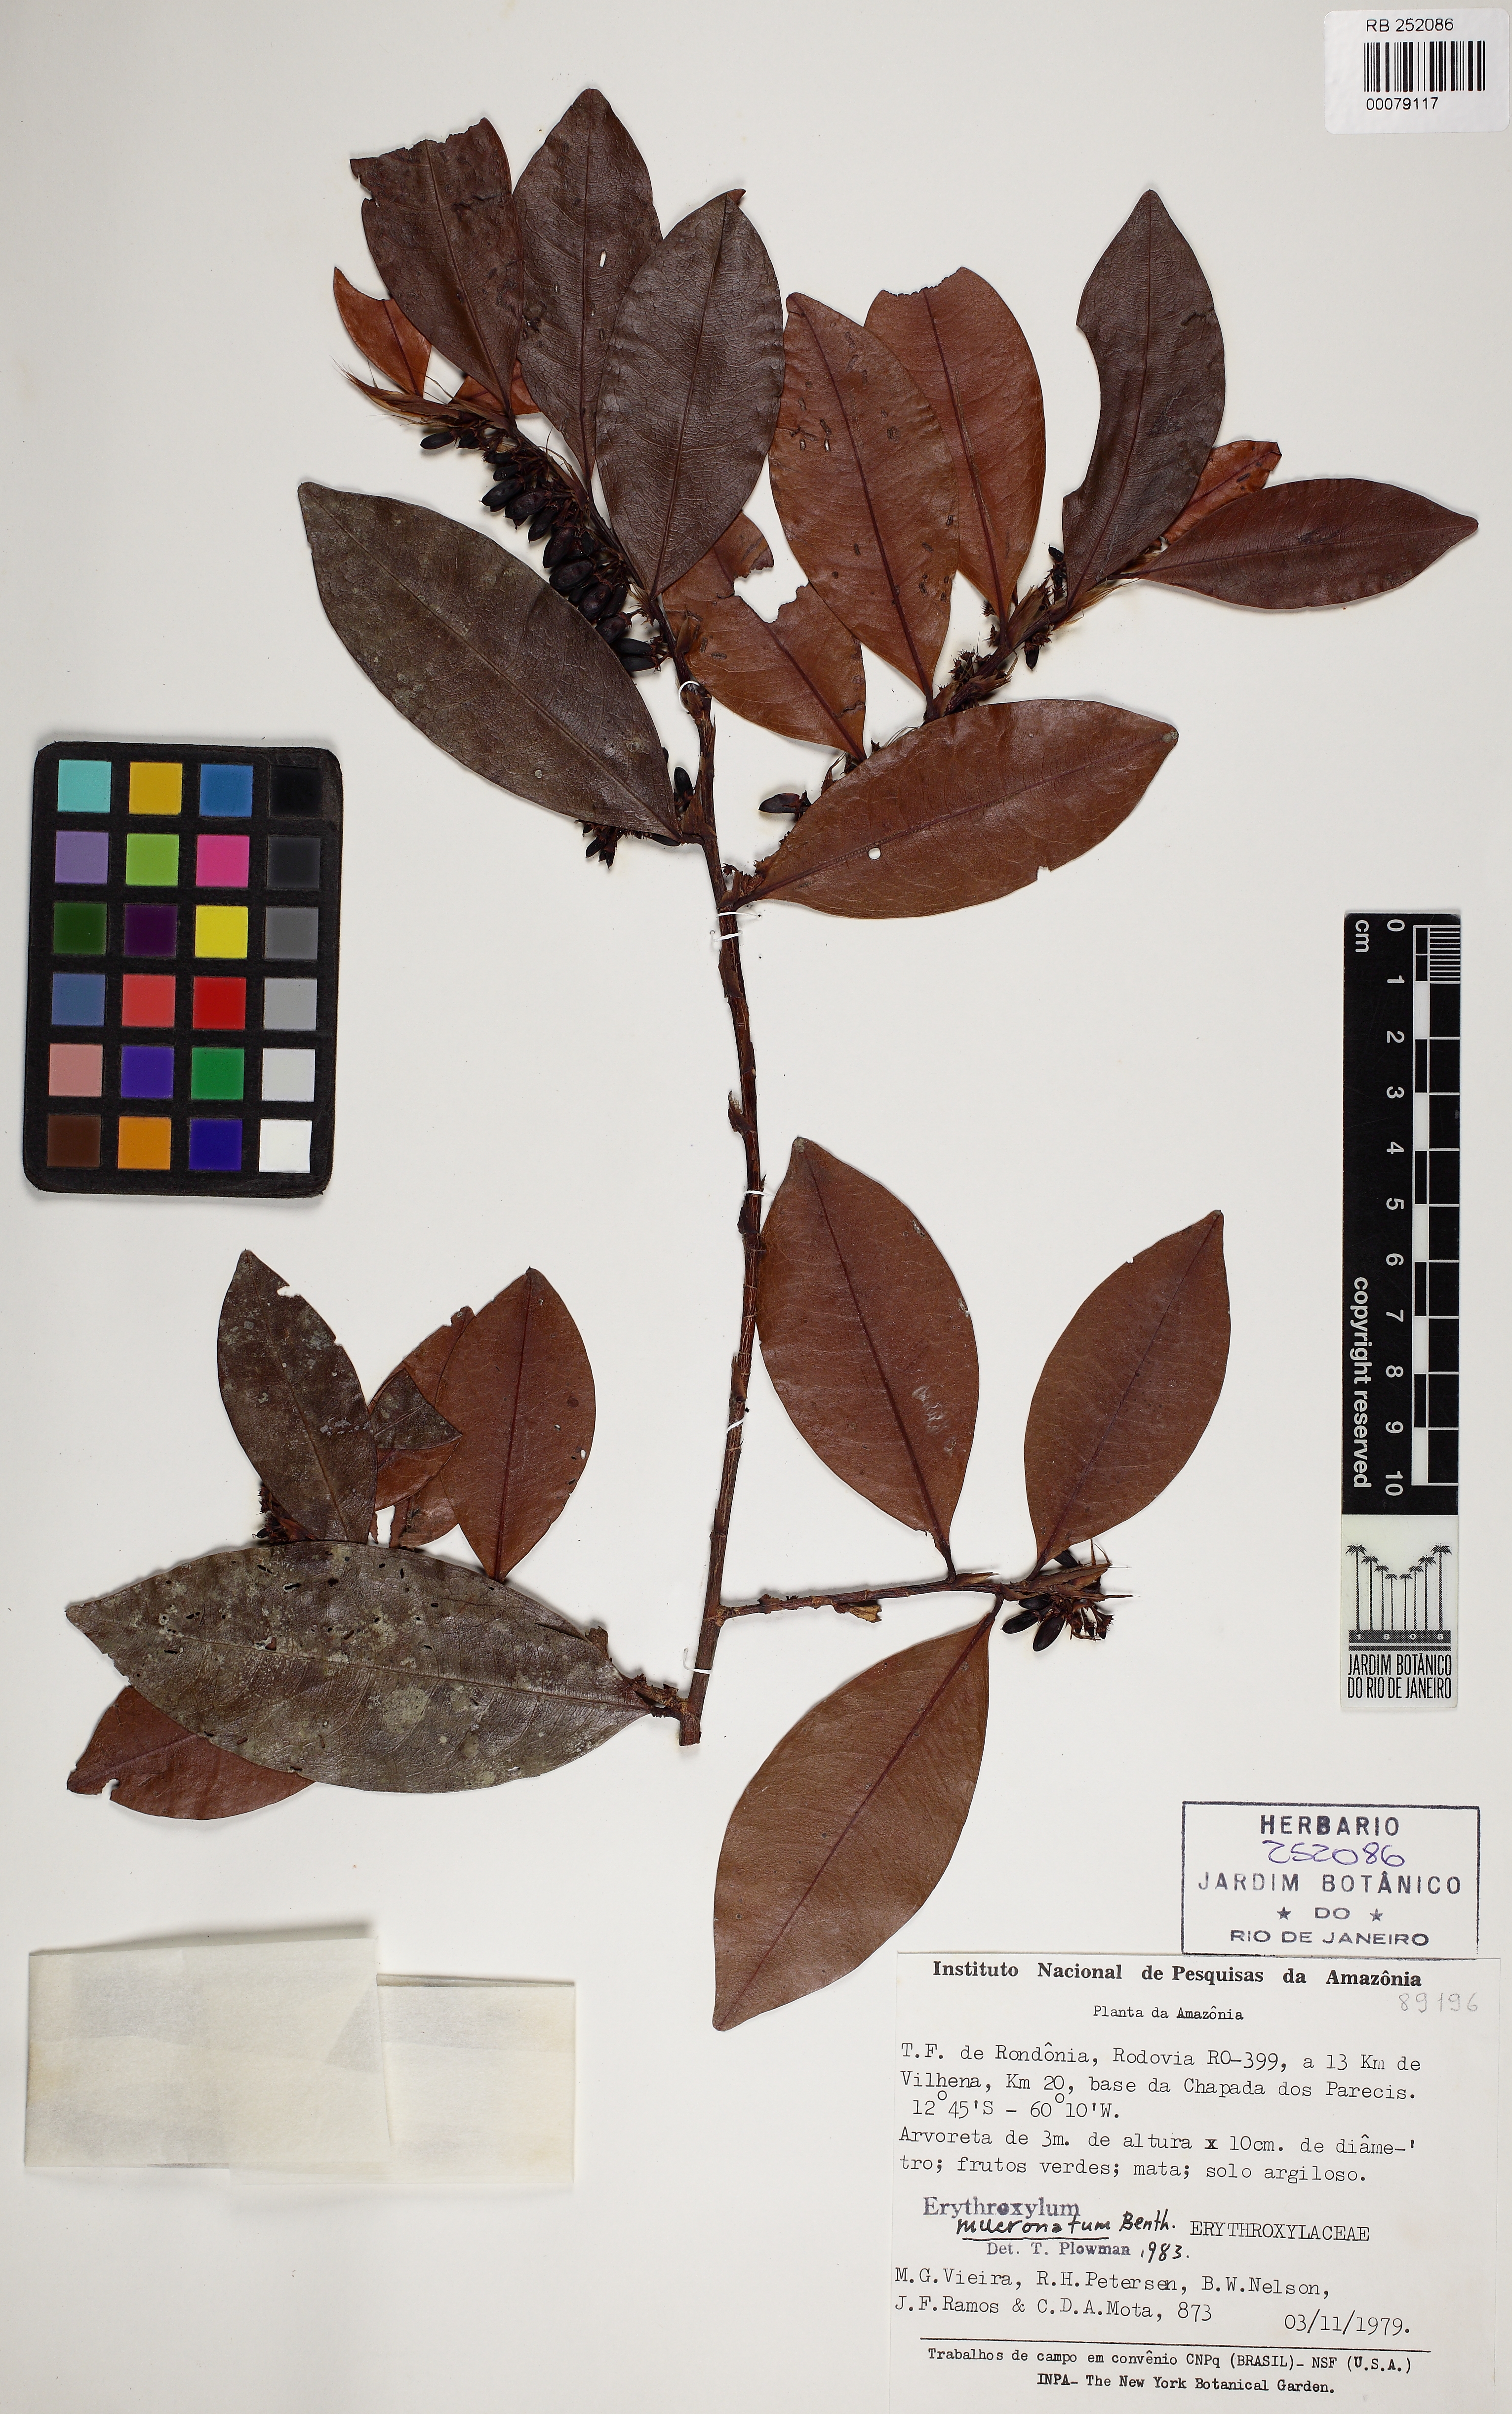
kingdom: Plantae
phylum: Tracheophyta
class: Magnoliopsida
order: Malpighiales
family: Erythroxylaceae
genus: Erythroxylum
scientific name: Erythroxylum mucronatum
